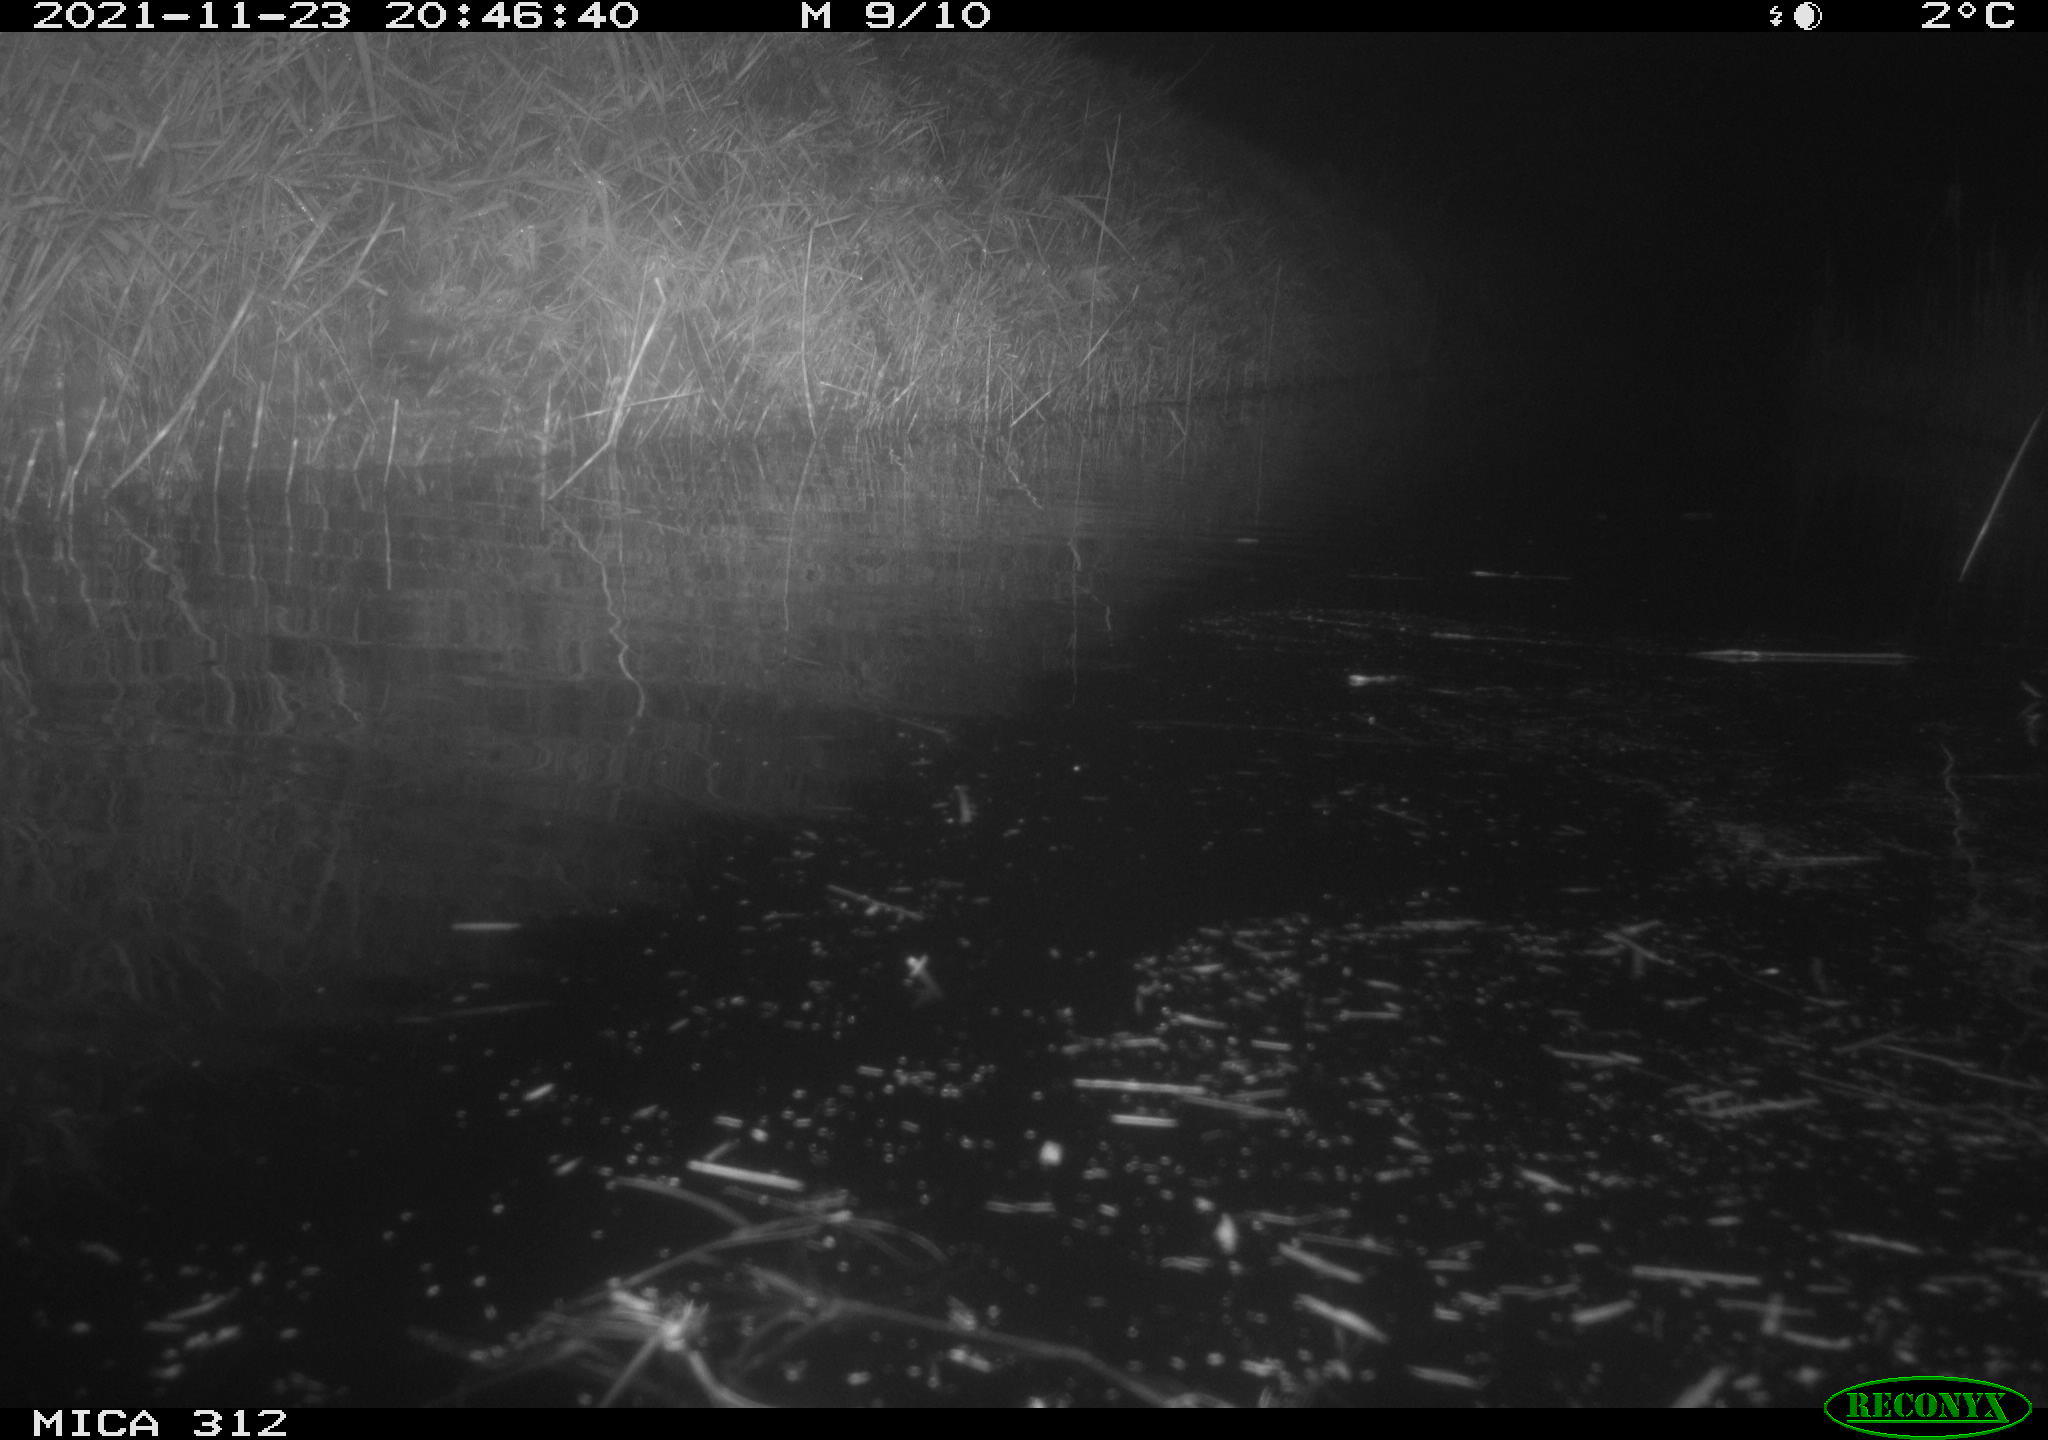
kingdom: Animalia
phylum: Chordata
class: Mammalia
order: Rodentia
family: Muridae
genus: Rattus
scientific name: Rattus norvegicus
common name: Brown rat
